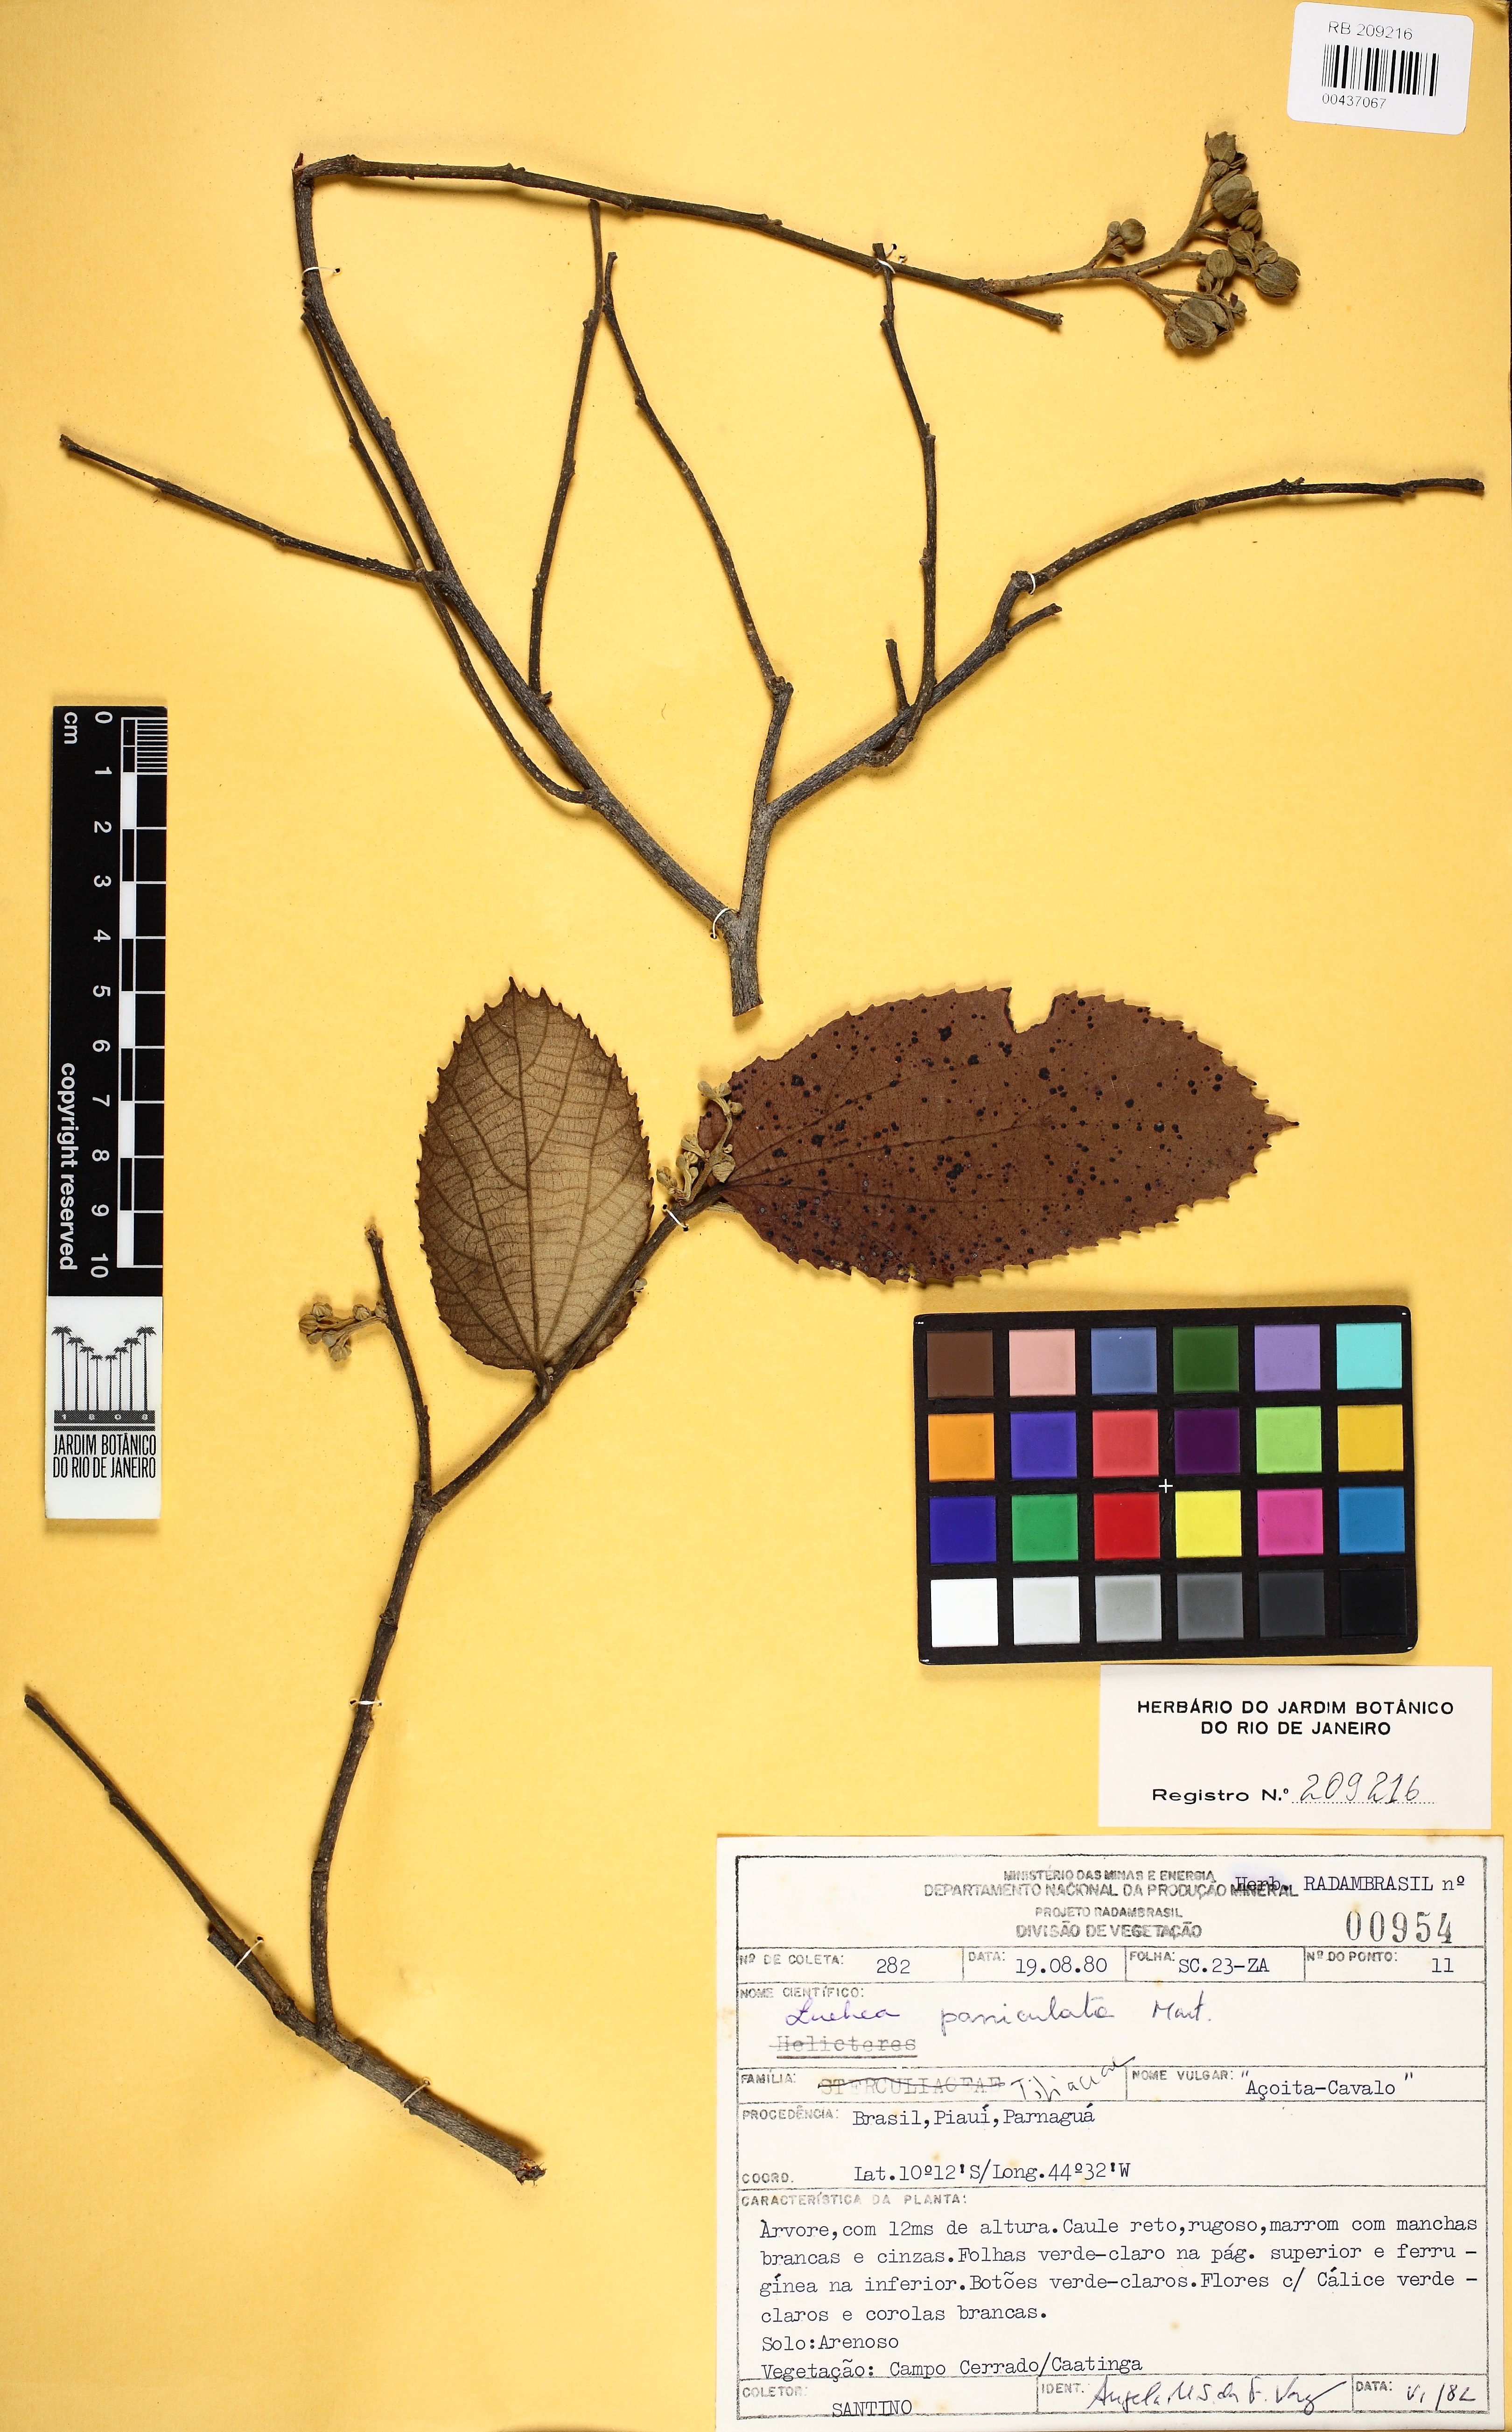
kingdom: Plantae
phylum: Tracheophyta
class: Magnoliopsida
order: Malvales
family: Malvaceae
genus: Luehea
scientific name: Luehea paniculata
